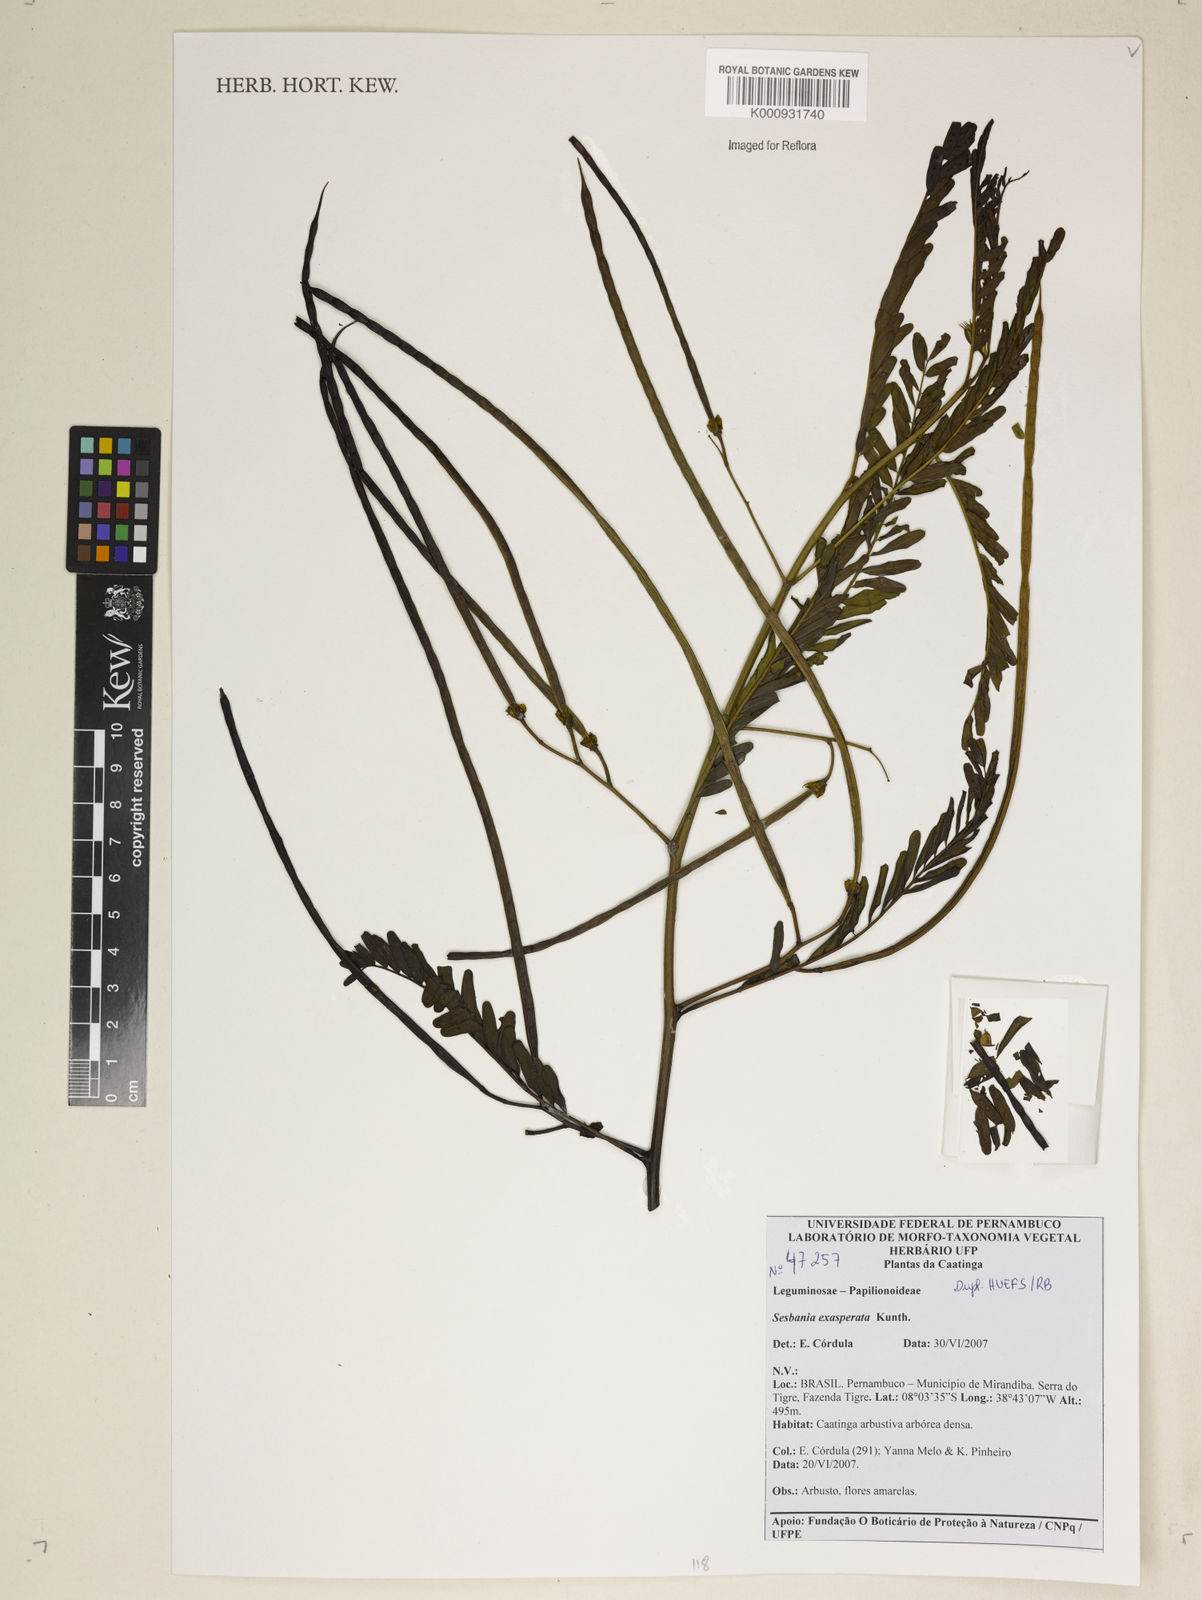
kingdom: Plantae
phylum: Tracheophyta
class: Magnoliopsida
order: Fabales
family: Fabaceae
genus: Sesbania
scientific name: Sesbania exasperata
